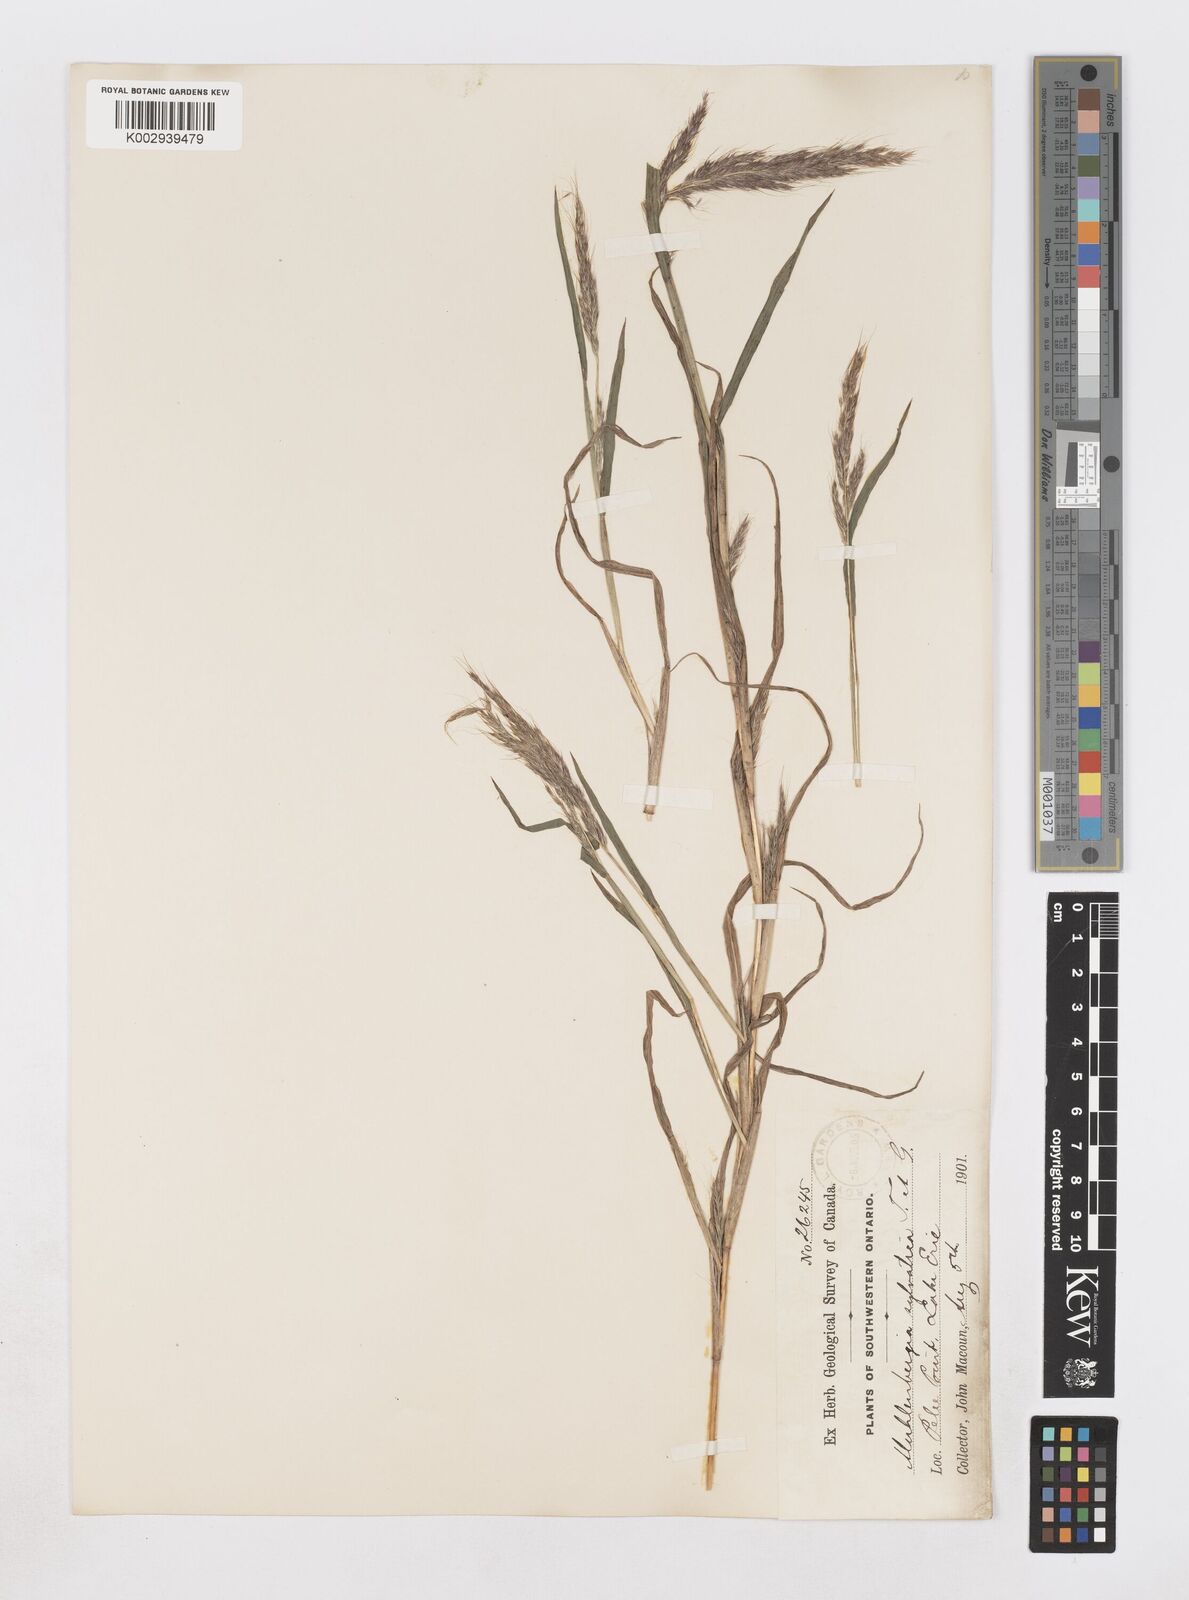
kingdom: Plantae
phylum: Tracheophyta
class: Liliopsida
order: Poales
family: Poaceae
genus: Muhlenbergia
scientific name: Muhlenbergia sylvatica
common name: Woodland muhly
